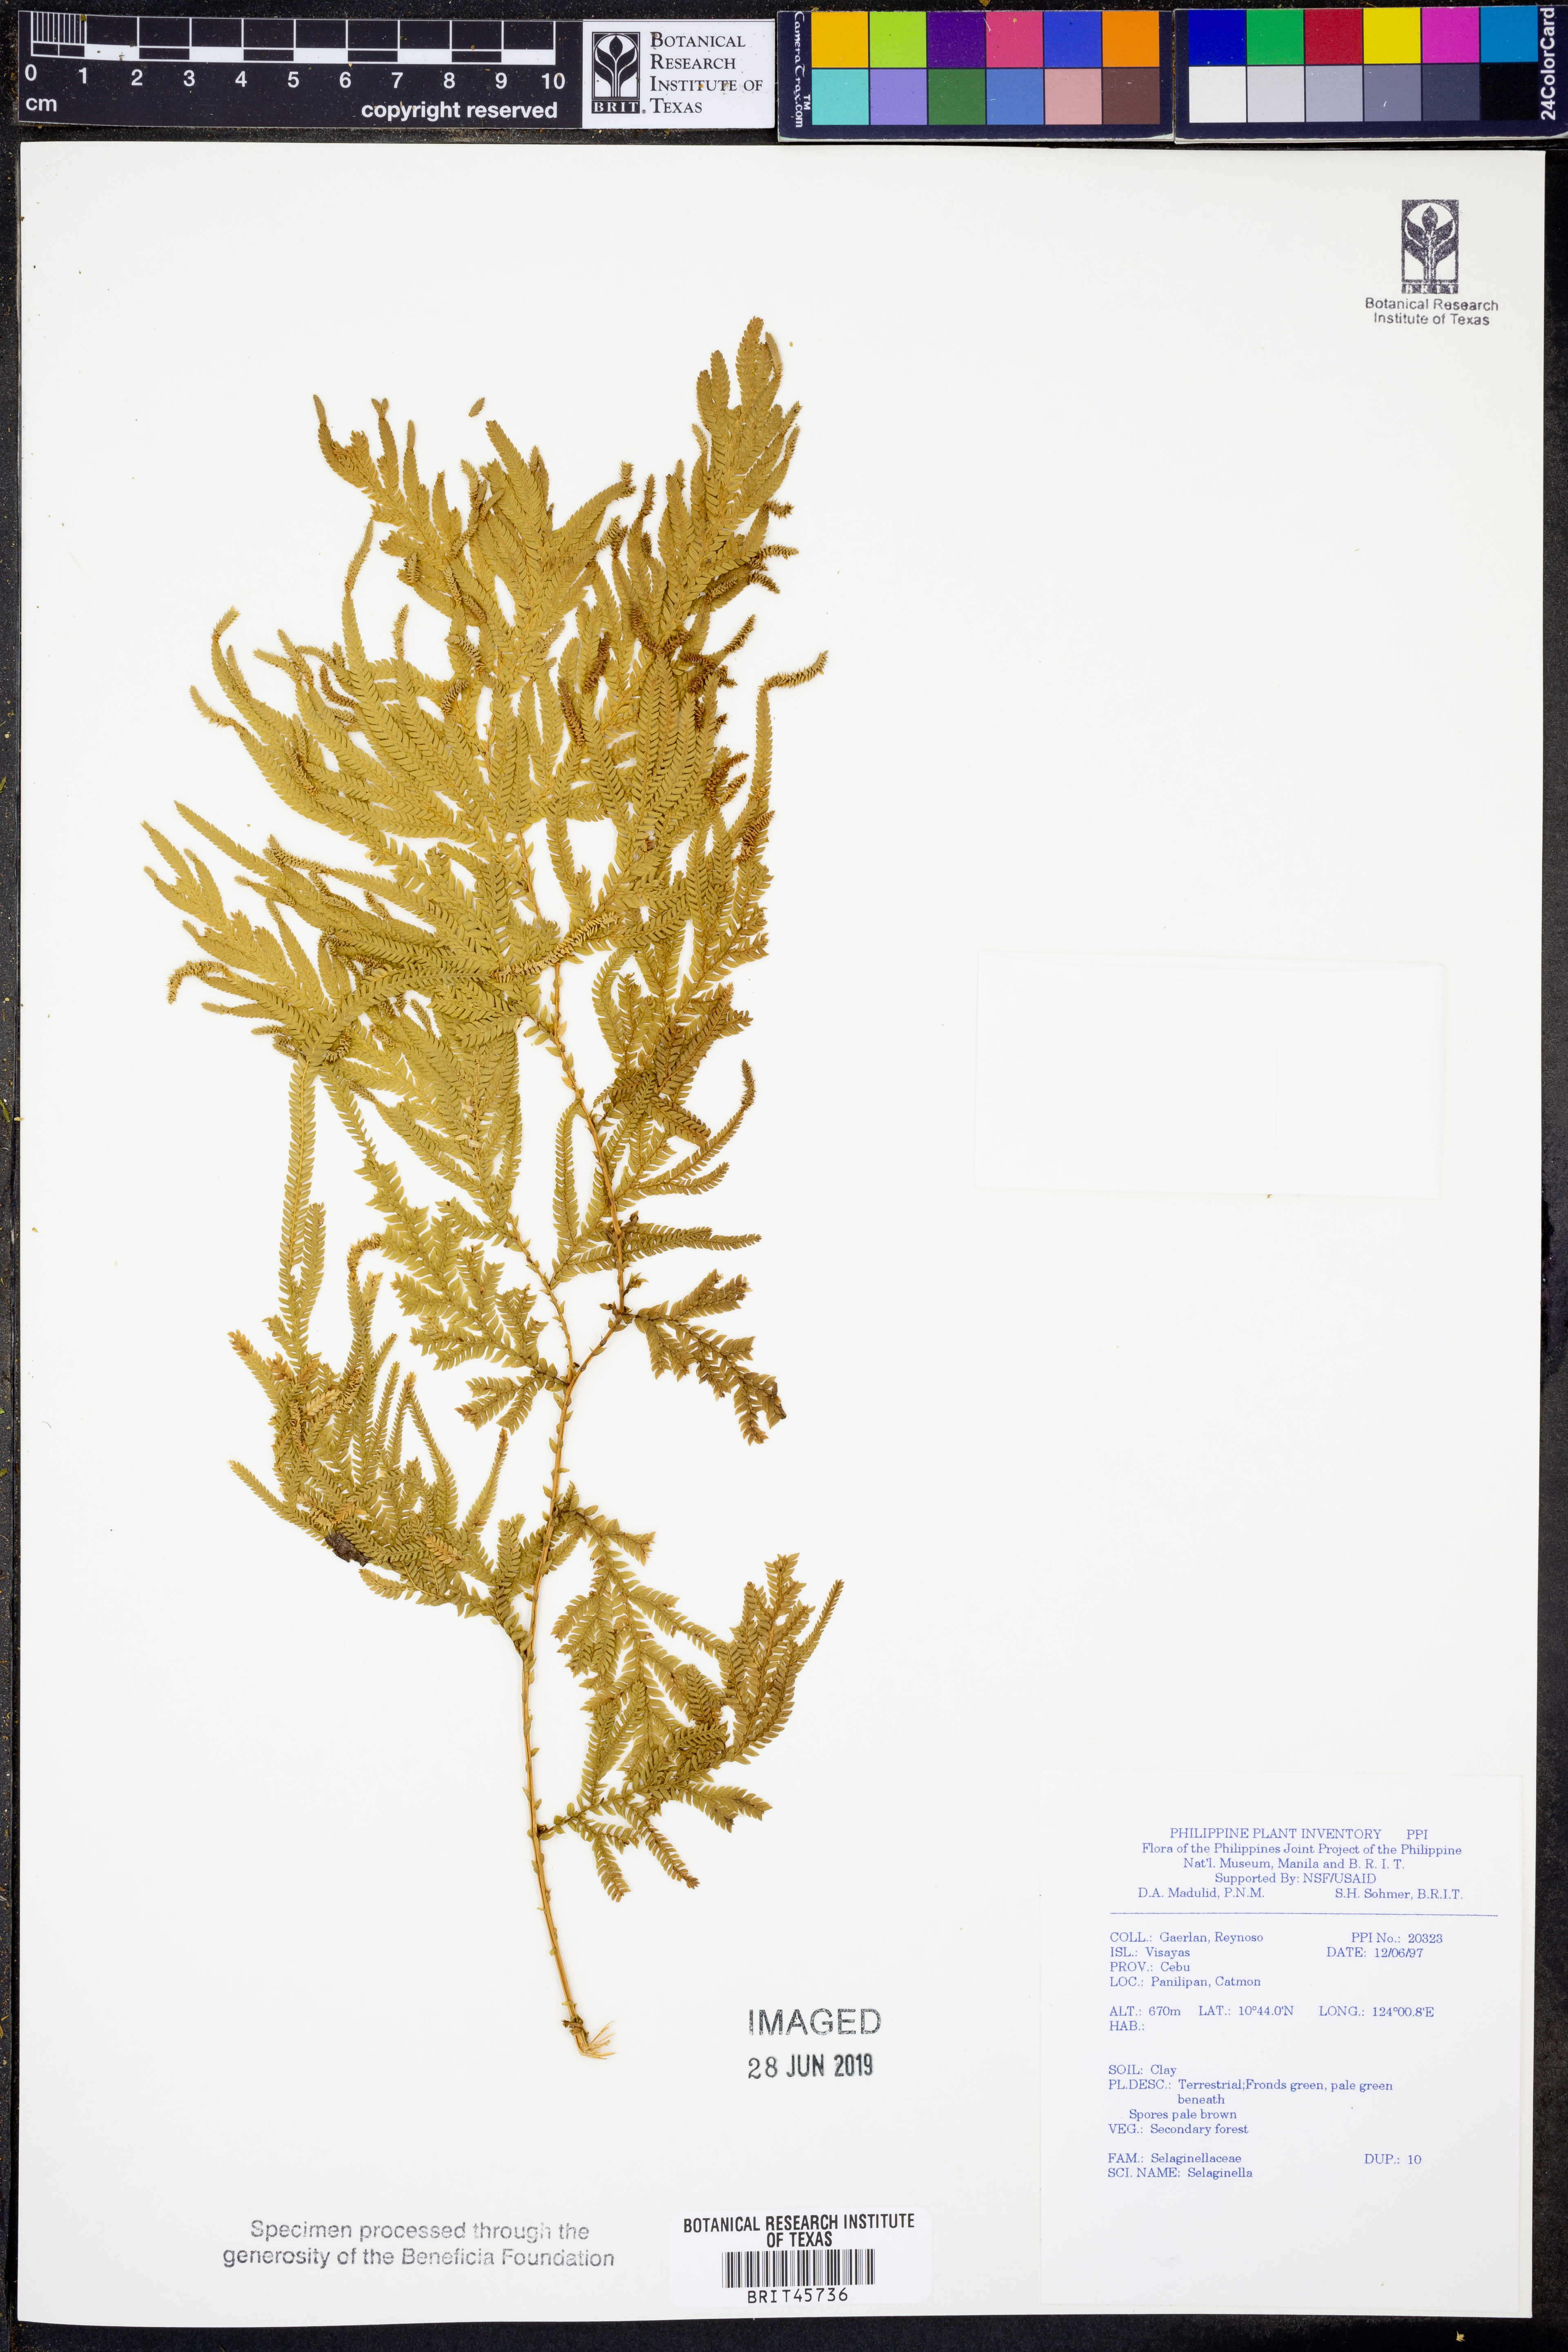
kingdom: Plantae
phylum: Tracheophyta
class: Lycopodiopsida
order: Selaginellales
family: Selaginellaceae
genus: Selaginella
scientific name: Selaginella
